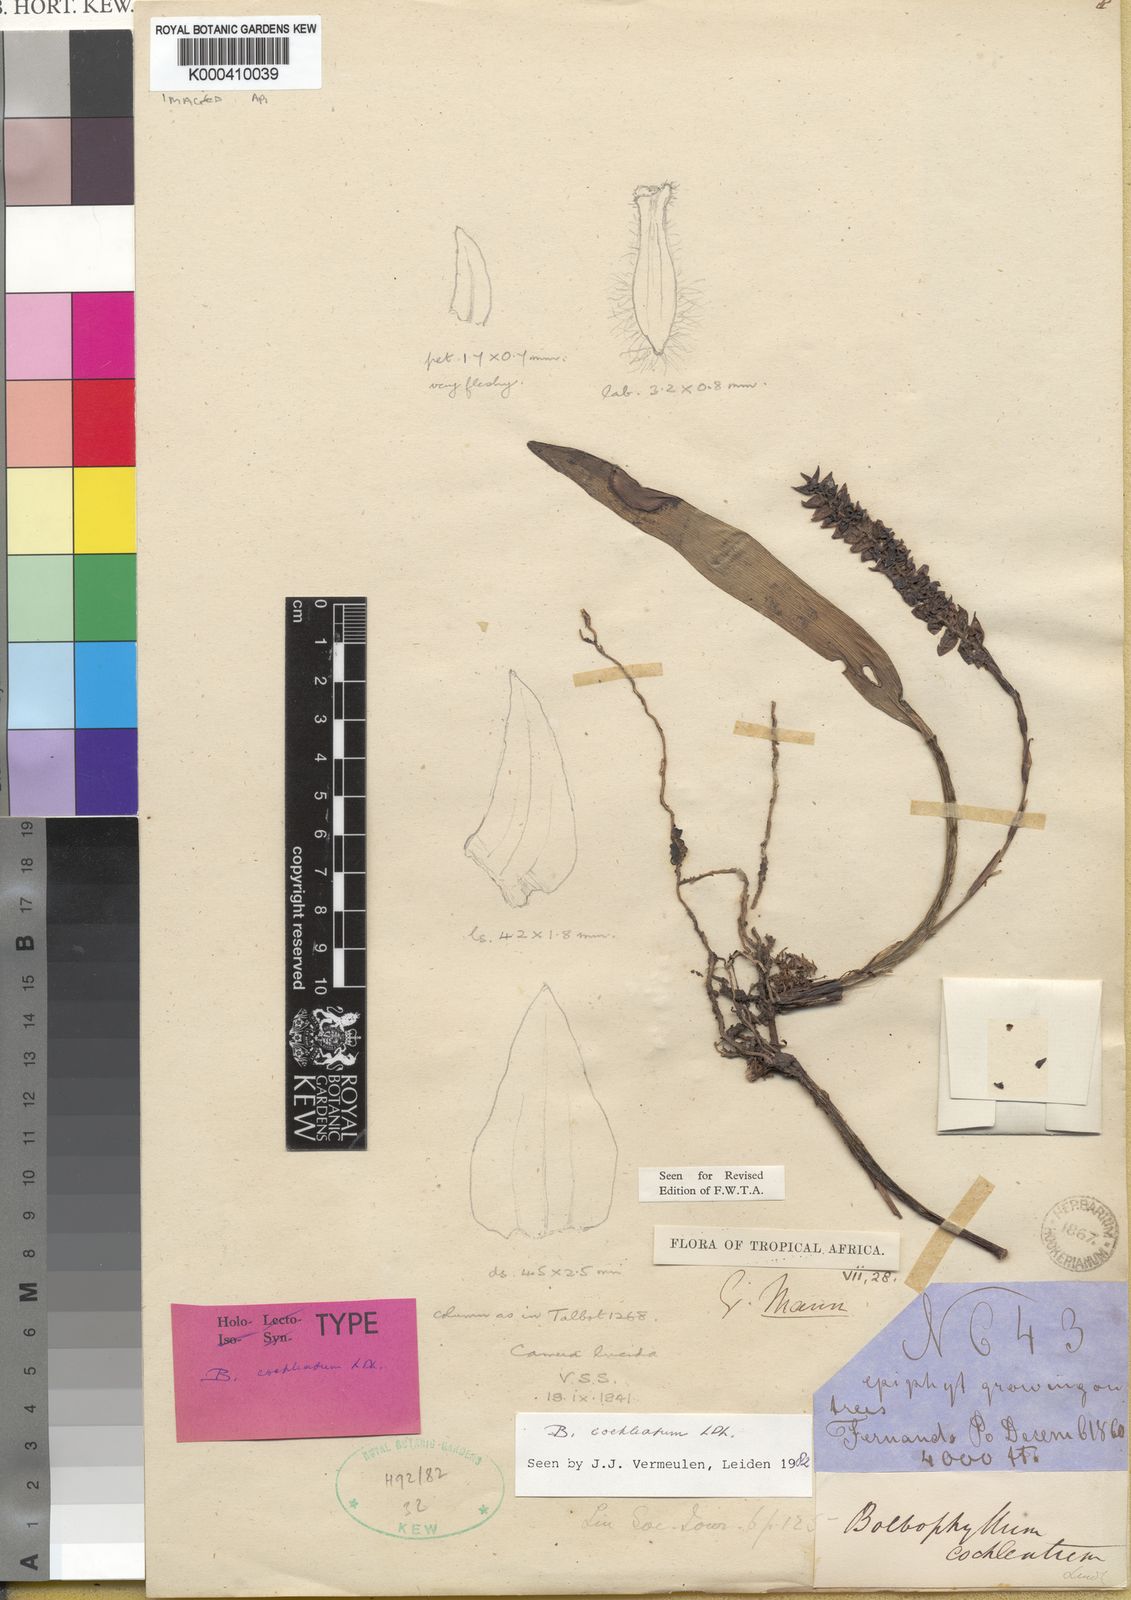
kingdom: Plantae
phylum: Tracheophyta
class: Liliopsida
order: Asparagales
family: Orchidaceae
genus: Bulbophyllum
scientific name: Bulbophyllum cochleatum
